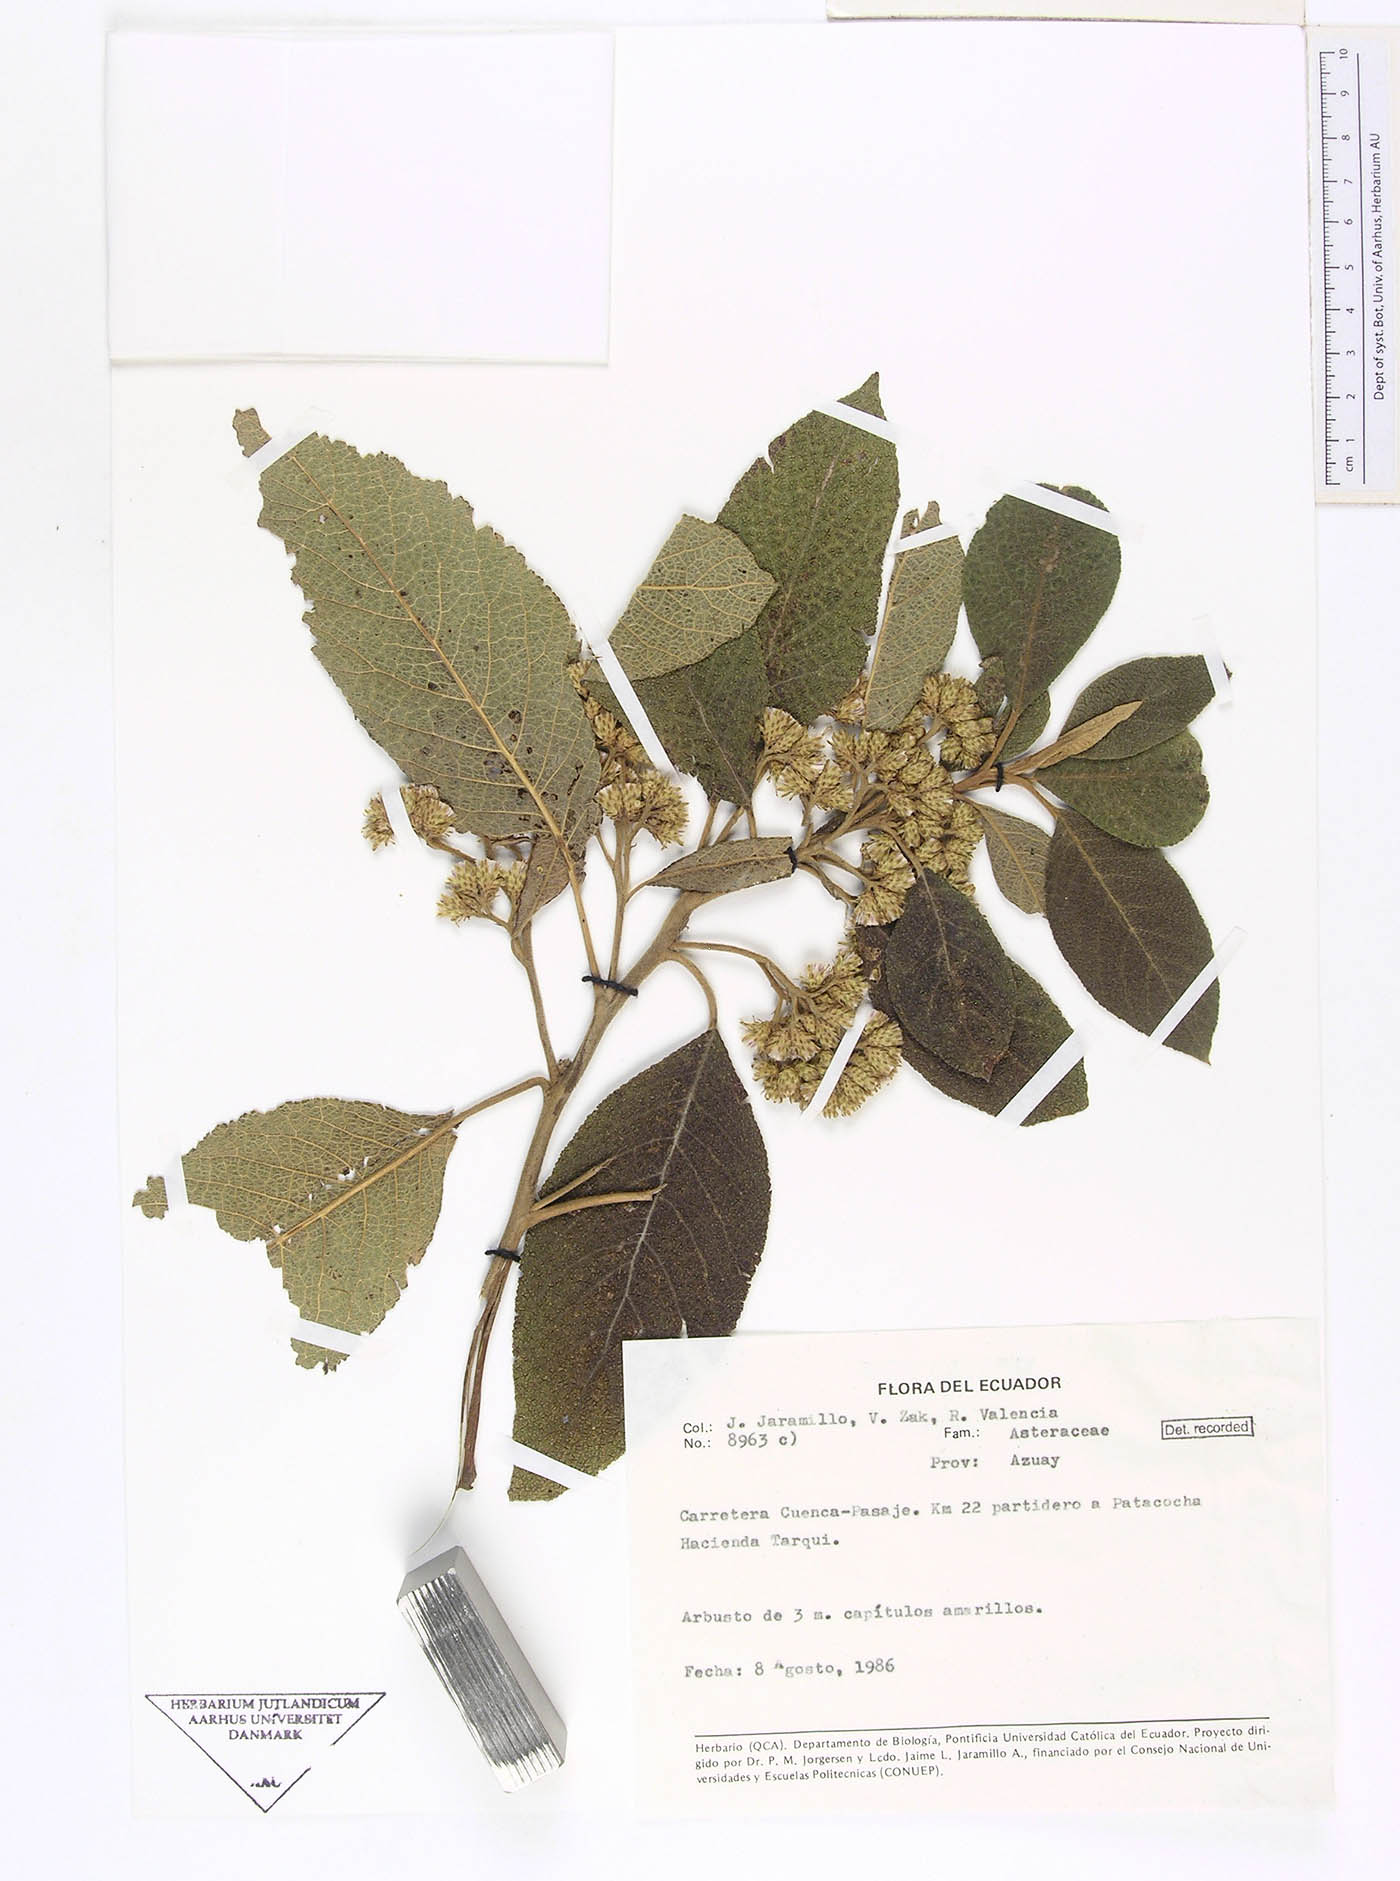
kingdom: Plantae
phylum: Tracheophyta
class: Magnoliopsida
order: Asterales
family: Asteraceae
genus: Critoniopsis
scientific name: Critoniopsis suaveolens
